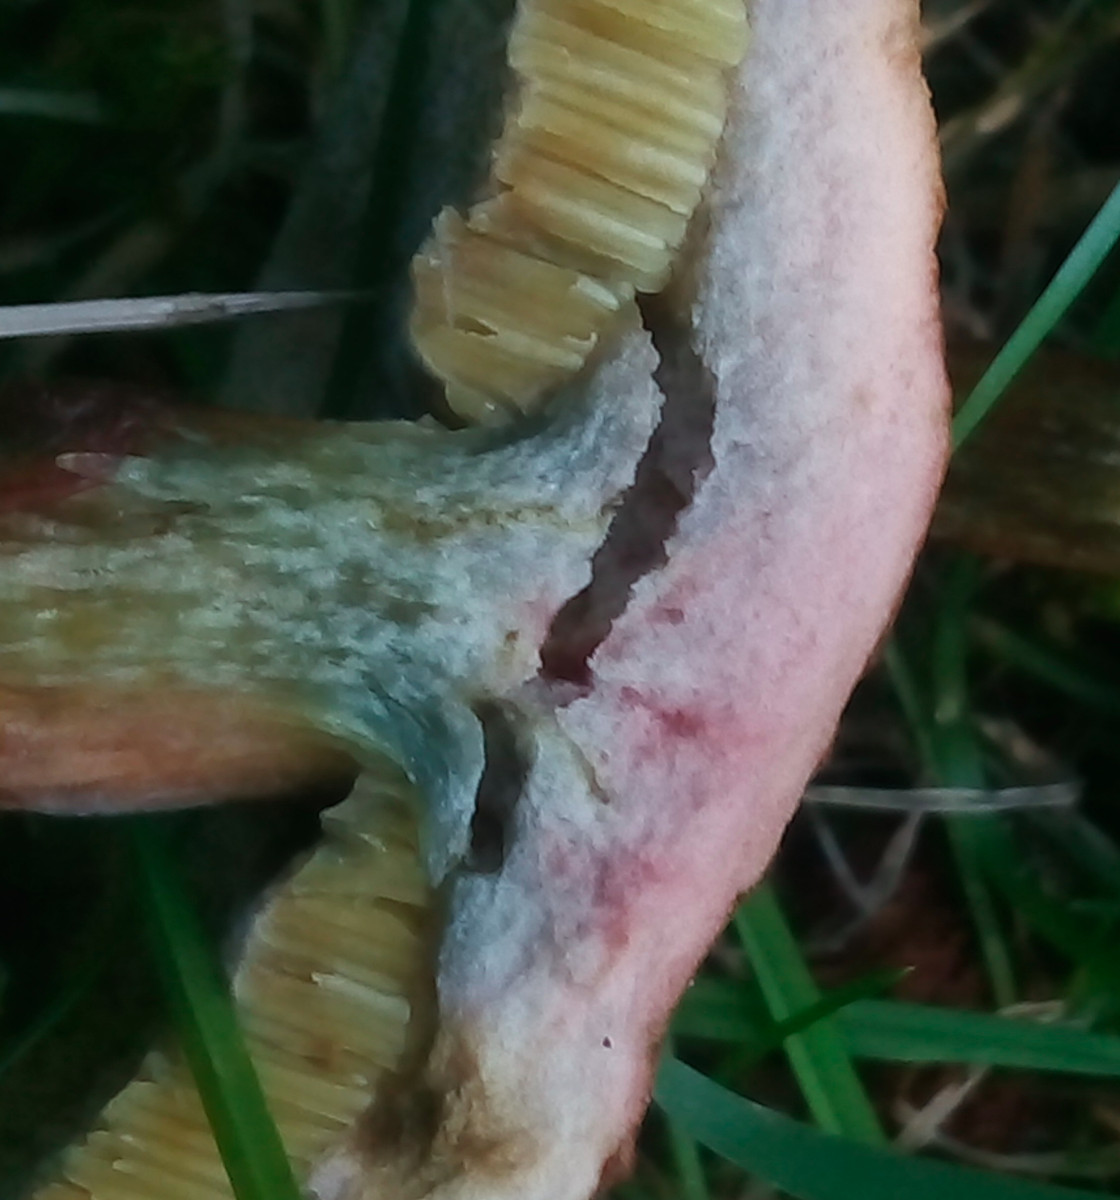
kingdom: Fungi
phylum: Basidiomycota
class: Agaricomycetes
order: Boletales
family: Boletaceae
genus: Hortiboletus
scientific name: Hortiboletus bubalinus
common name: aurora-rørhat
